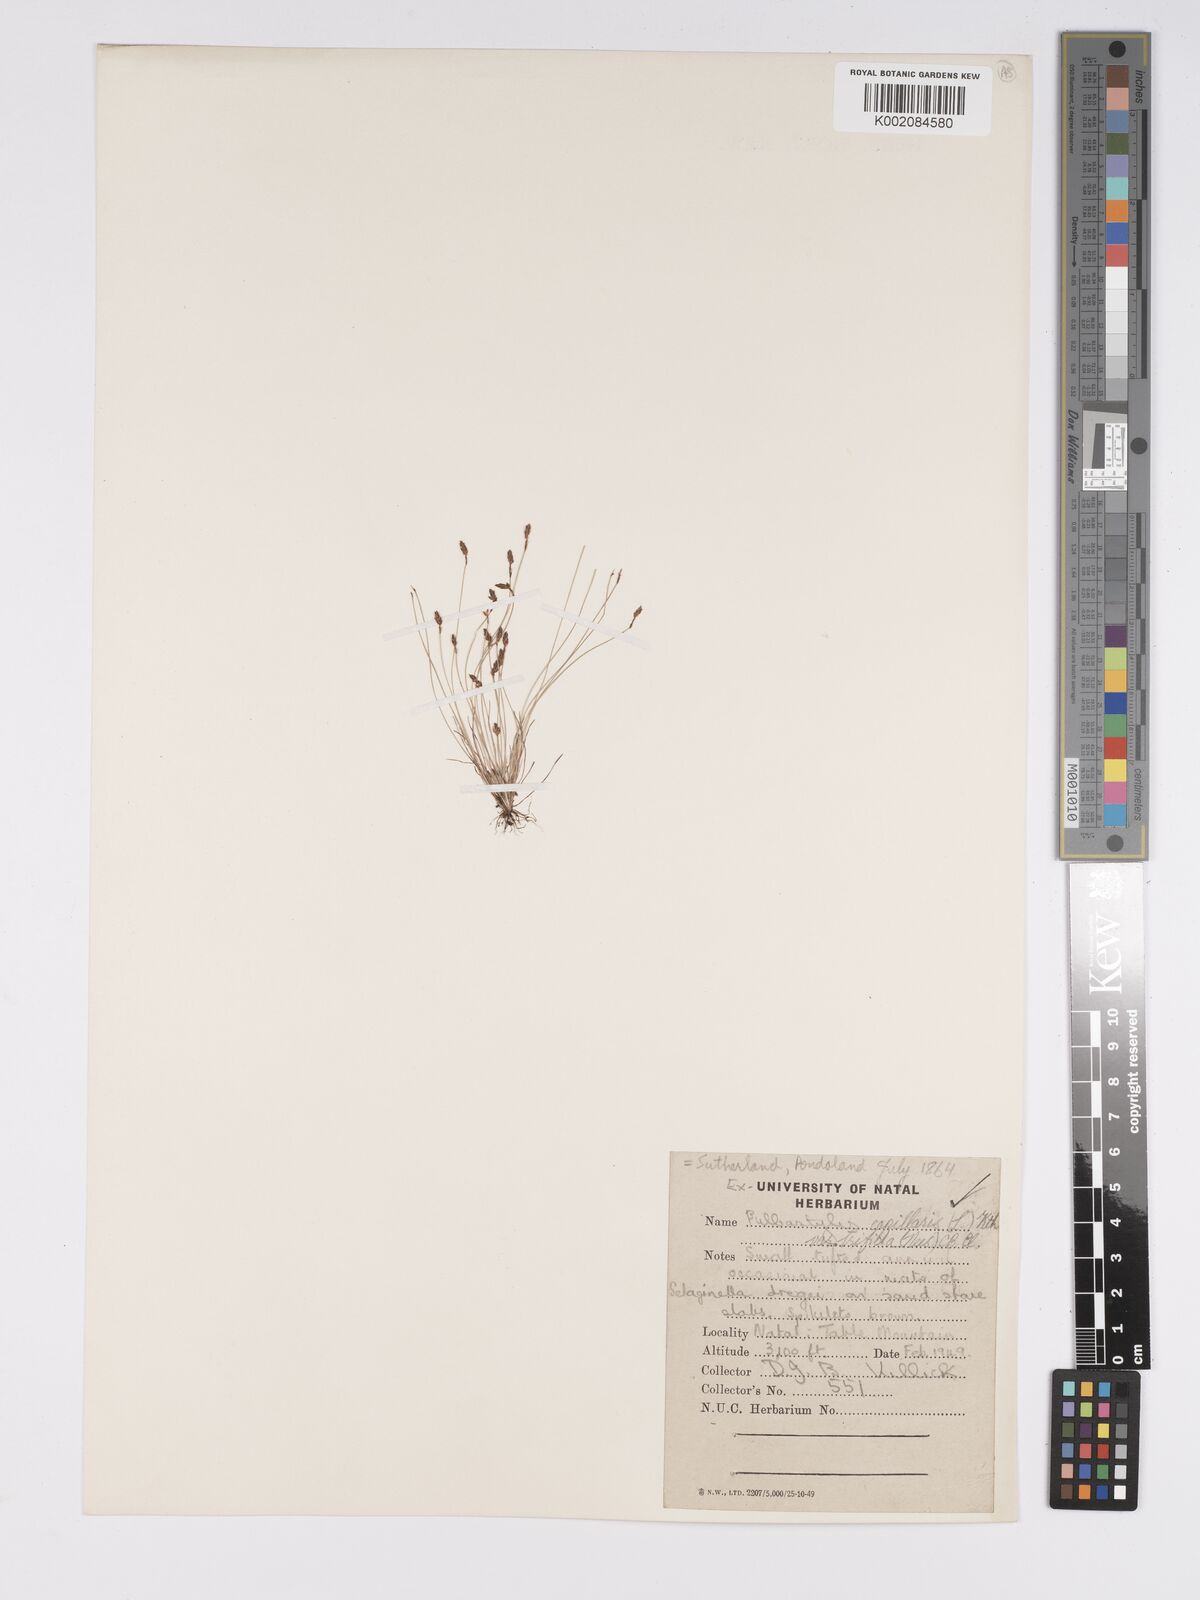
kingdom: Plantae
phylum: Tracheophyta
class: Liliopsida
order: Poales
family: Cyperaceae
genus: Bulbostylis
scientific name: Bulbostylis capillaris
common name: Densetuft hairsedge
